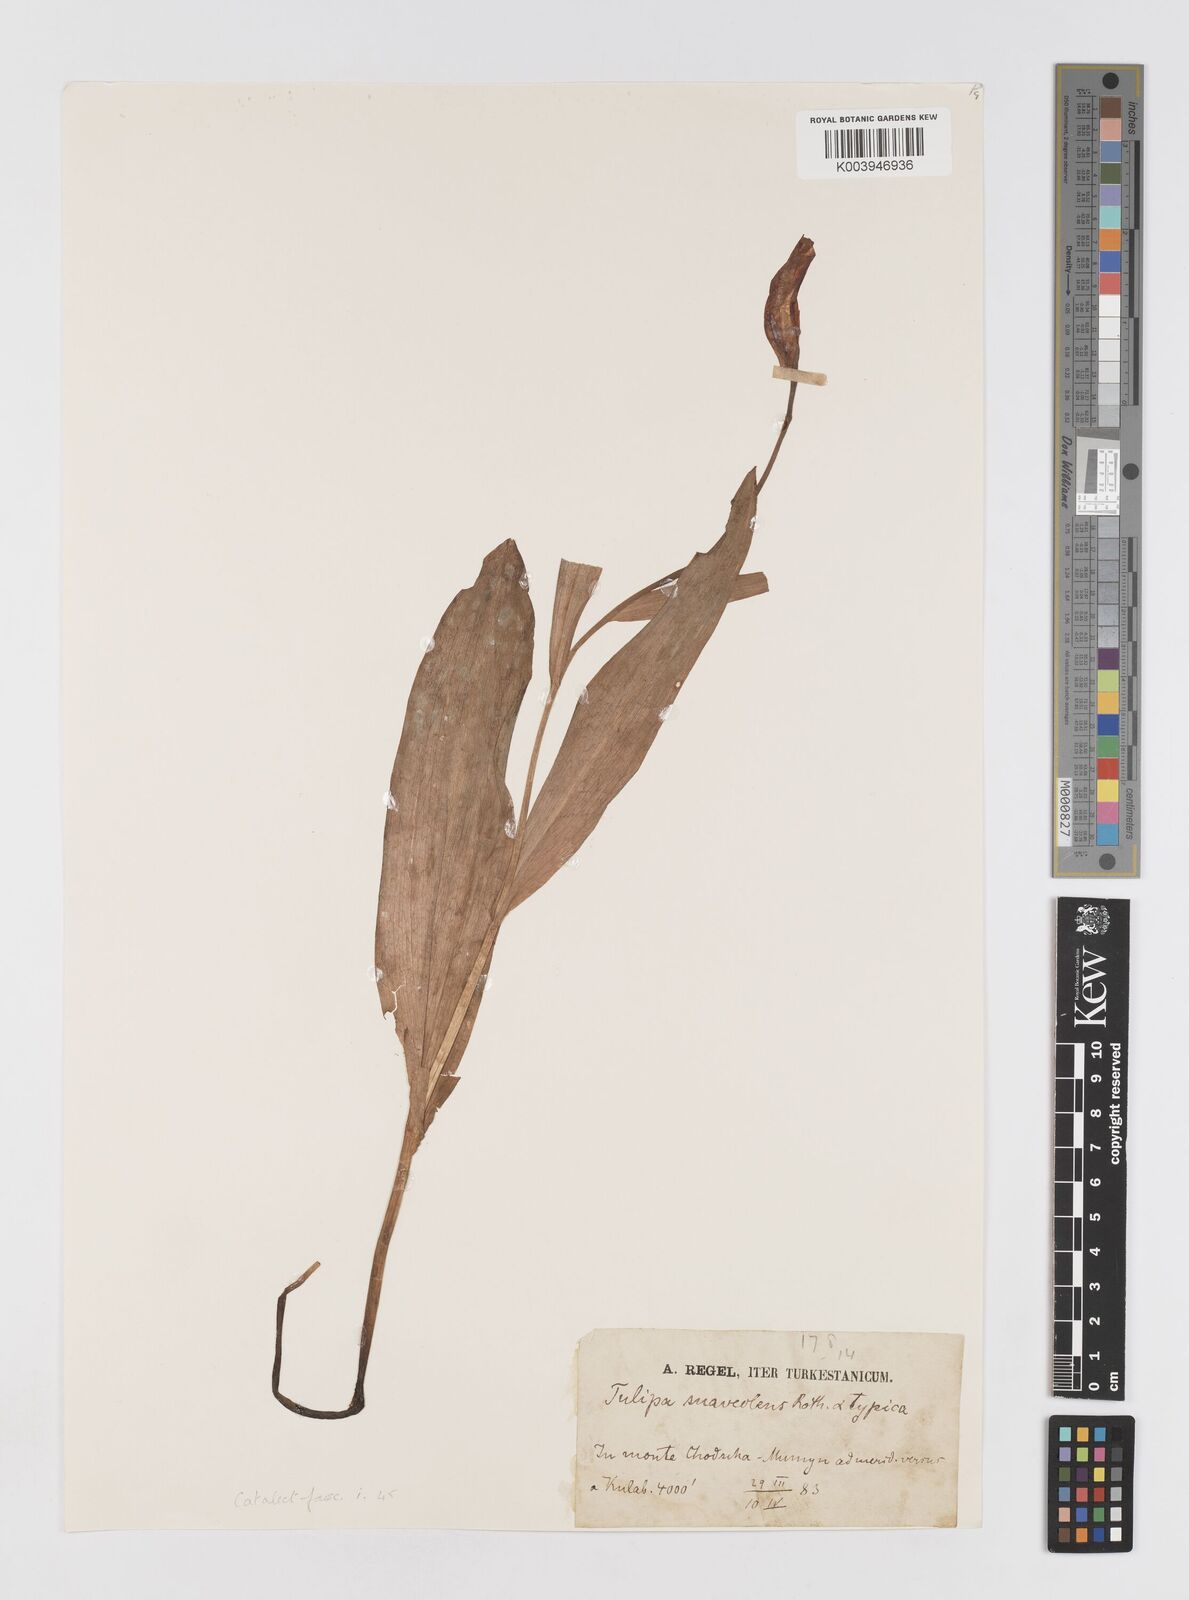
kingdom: Plantae
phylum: Tracheophyta
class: Liliopsida
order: Liliales
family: Liliaceae
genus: Tulipa
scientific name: Tulipa suaveolens
